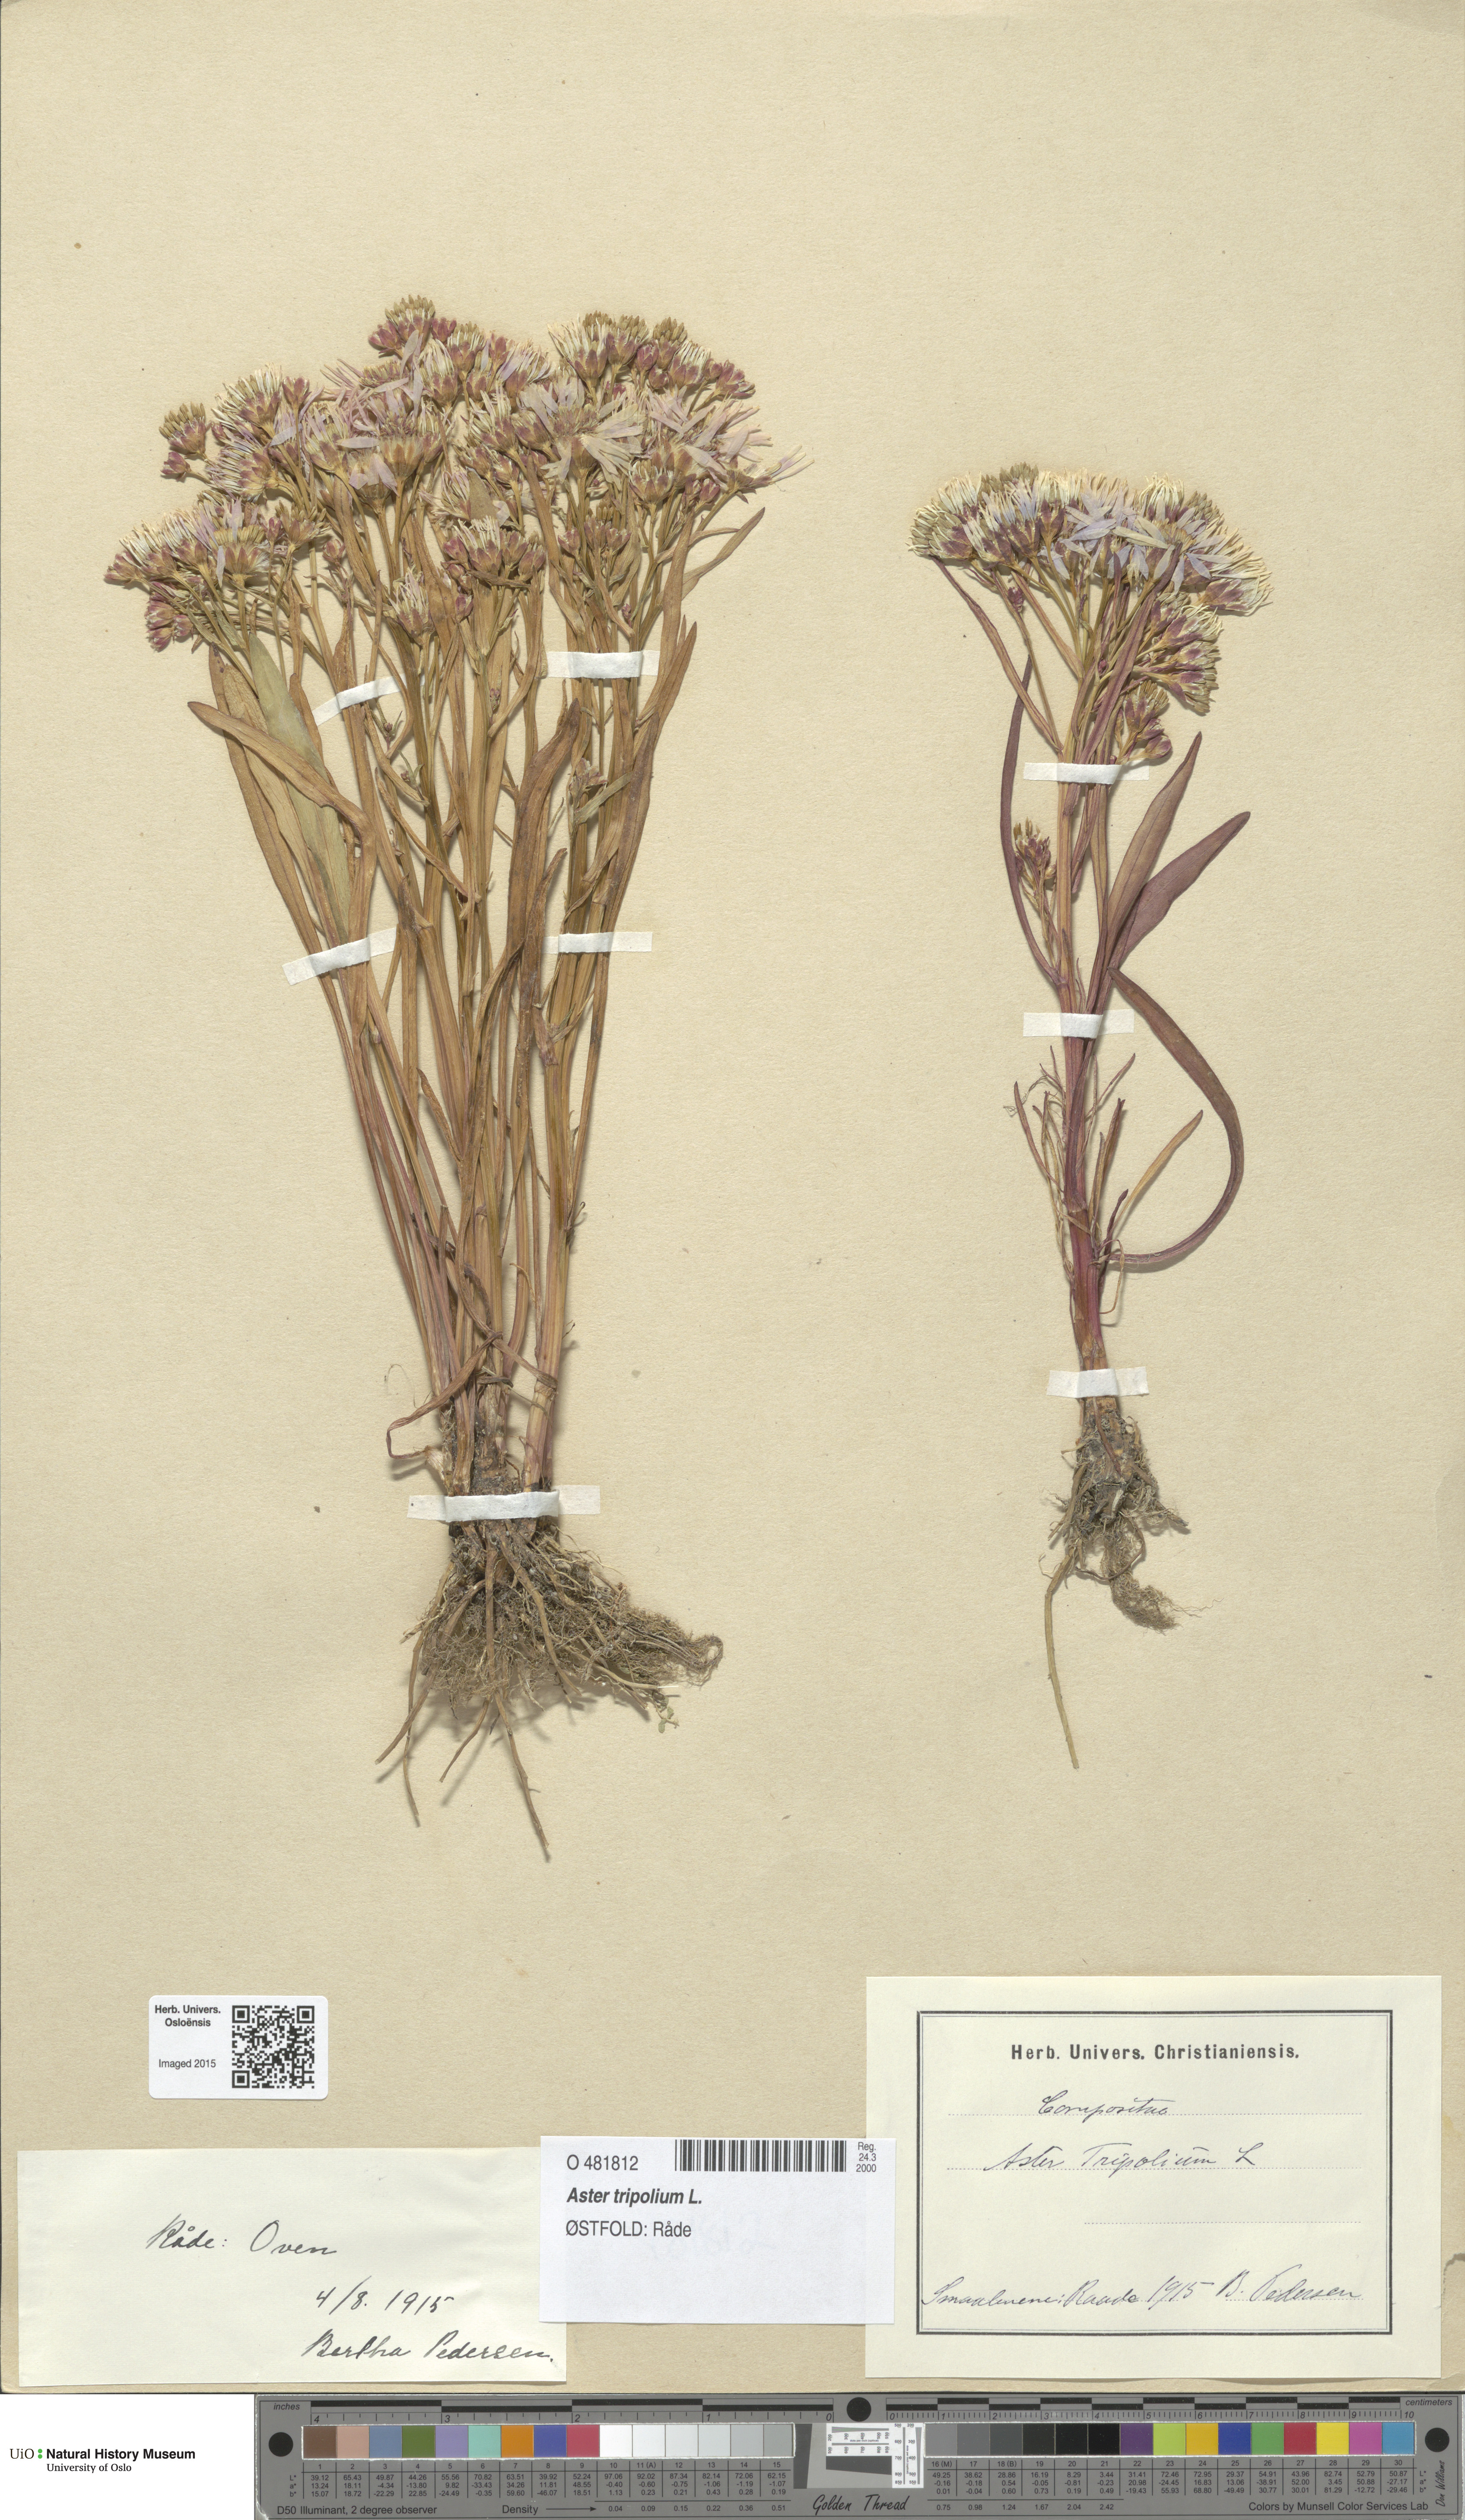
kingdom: Plantae
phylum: Tracheophyta
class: Magnoliopsida
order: Asterales
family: Asteraceae
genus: Tripolium
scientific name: Tripolium pannonicum
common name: Sea aster
